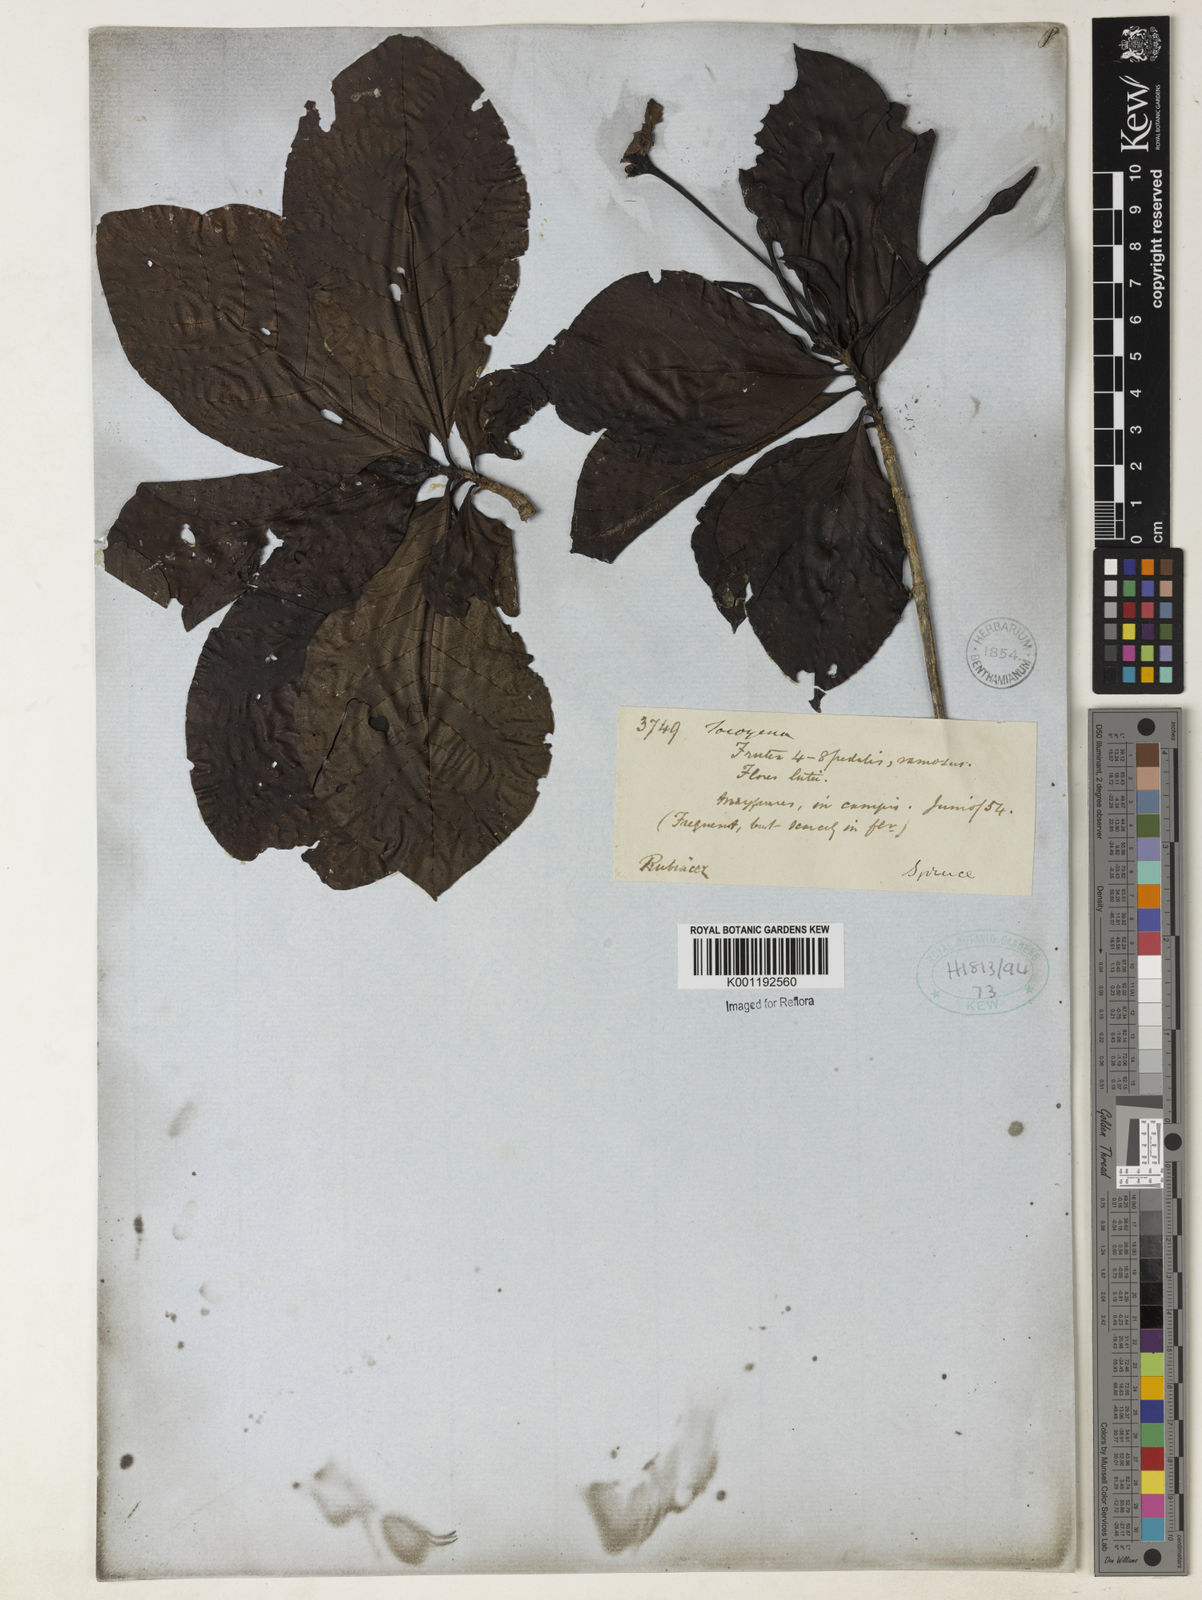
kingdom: Plantae
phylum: Tracheophyta
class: Magnoliopsida
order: Gentianales
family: Rubiaceae
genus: Tocoyena
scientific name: Tocoyena
